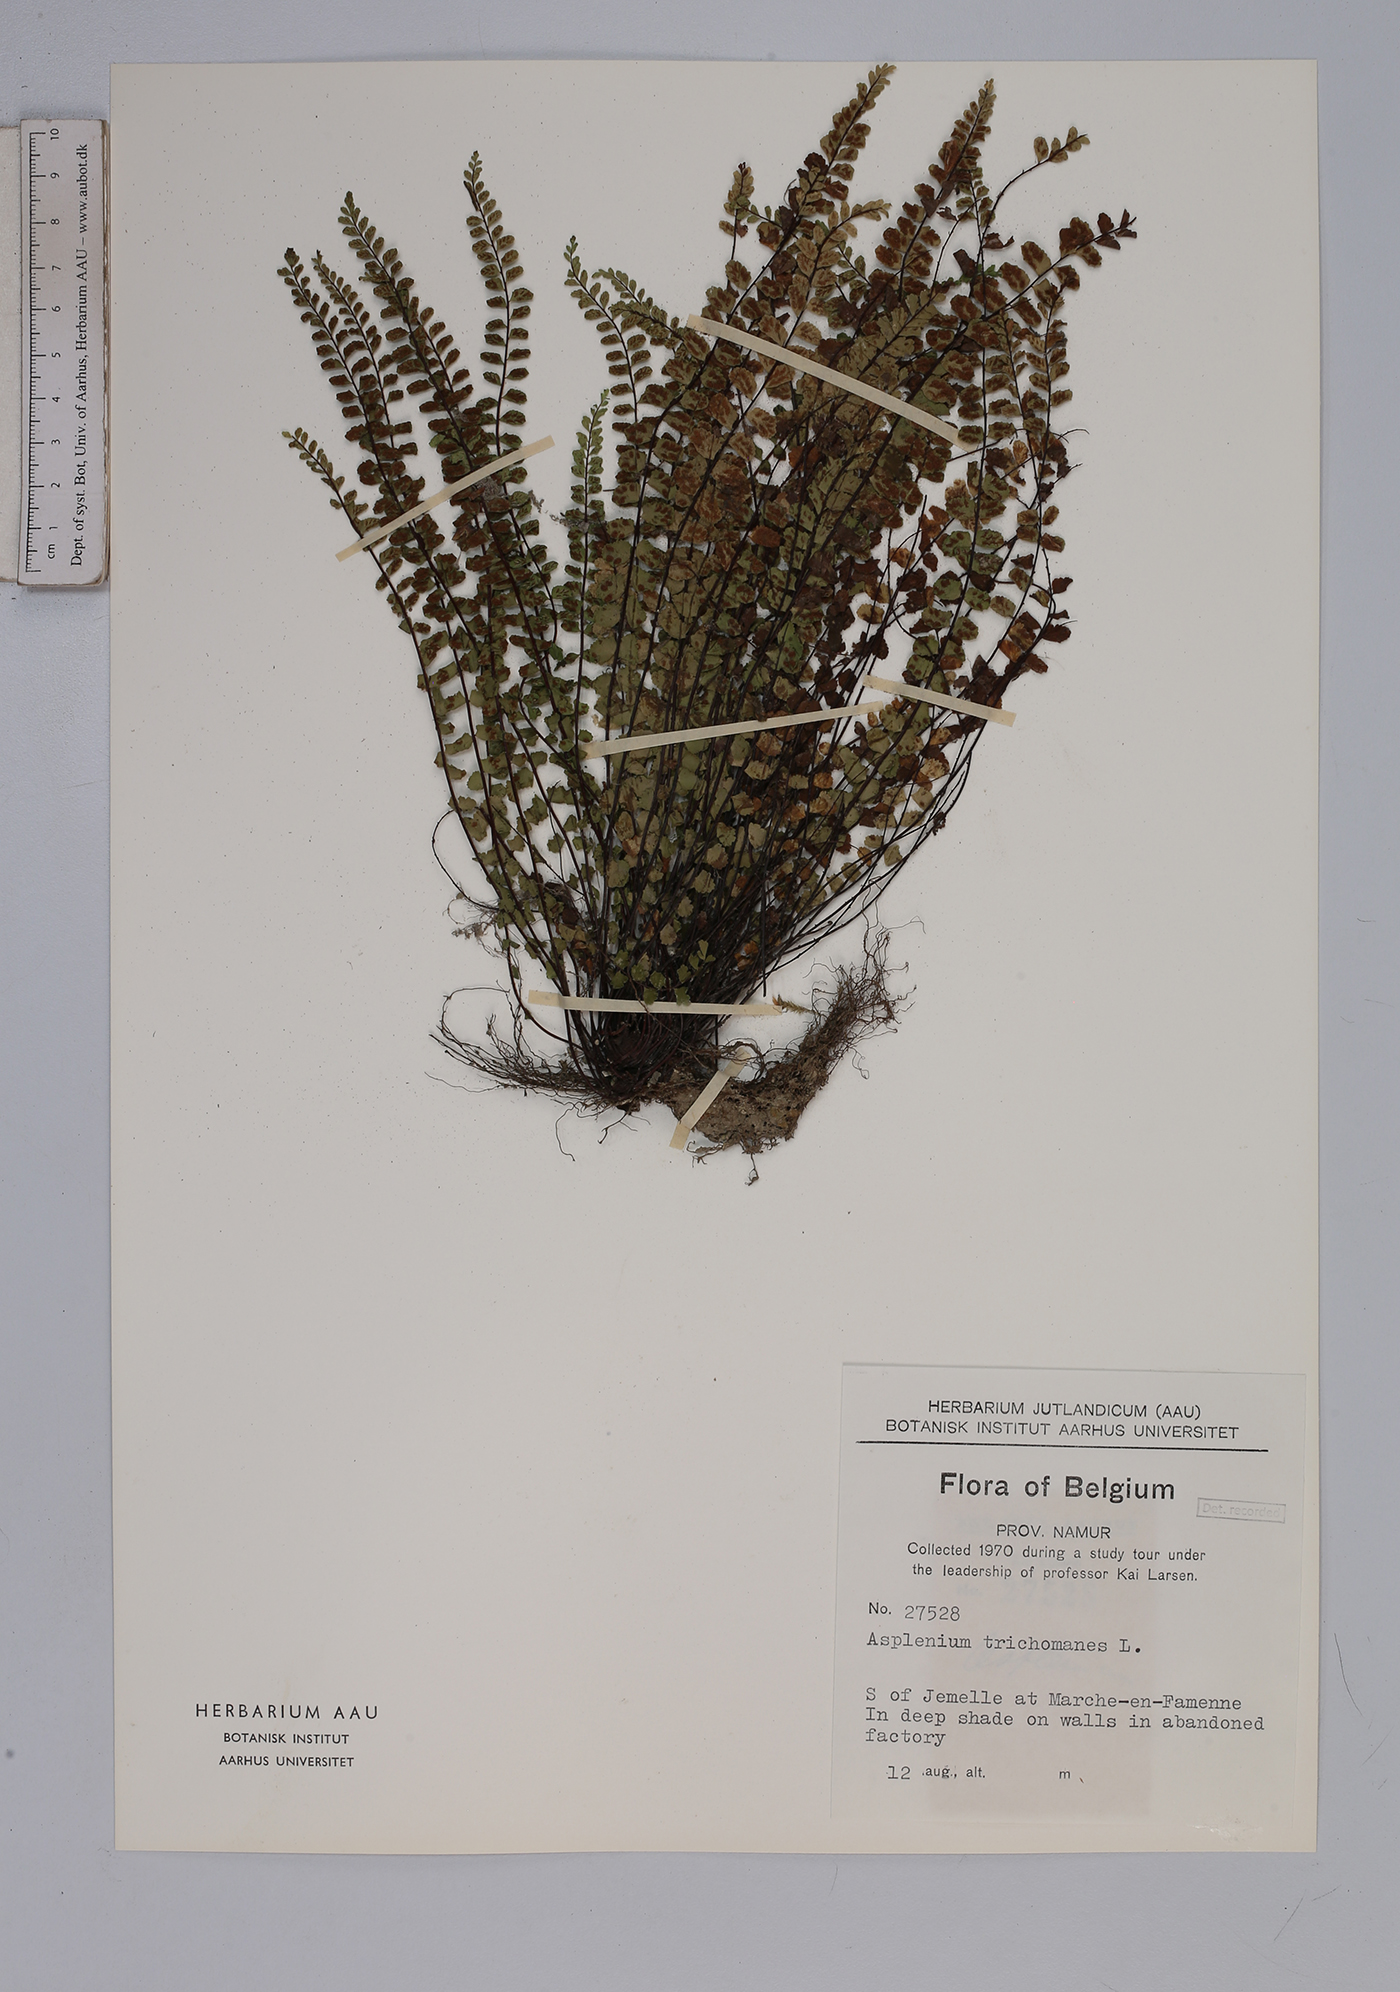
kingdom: Plantae
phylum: Tracheophyta
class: Polypodiopsida
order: Polypodiales
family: Aspleniaceae
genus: Asplenium
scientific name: Asplenium trichomanes
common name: Maidenhair spleenwort
